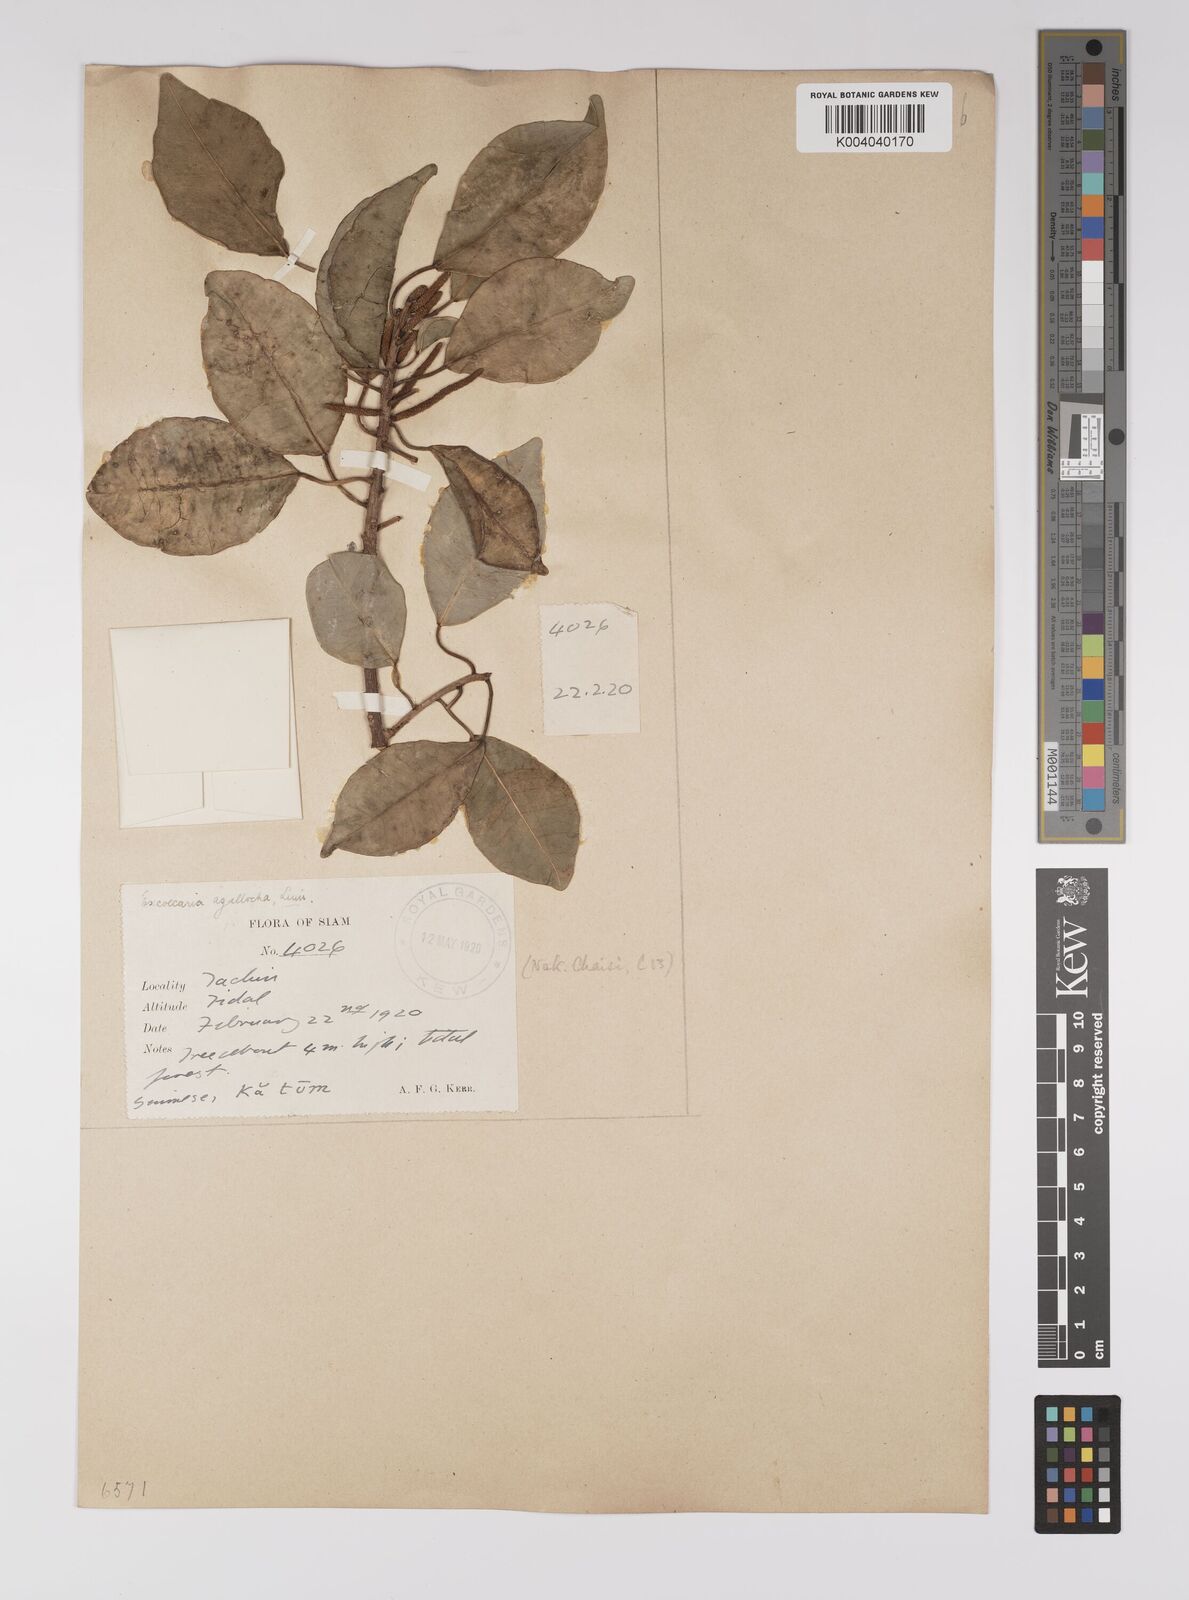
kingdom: Plantae
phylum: Tracheophyta
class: Magnoliopsida
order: Malpighiales
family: Euphorbiaceae
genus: Excoecaria
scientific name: Excoecaria agallocha
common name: River poisontree
